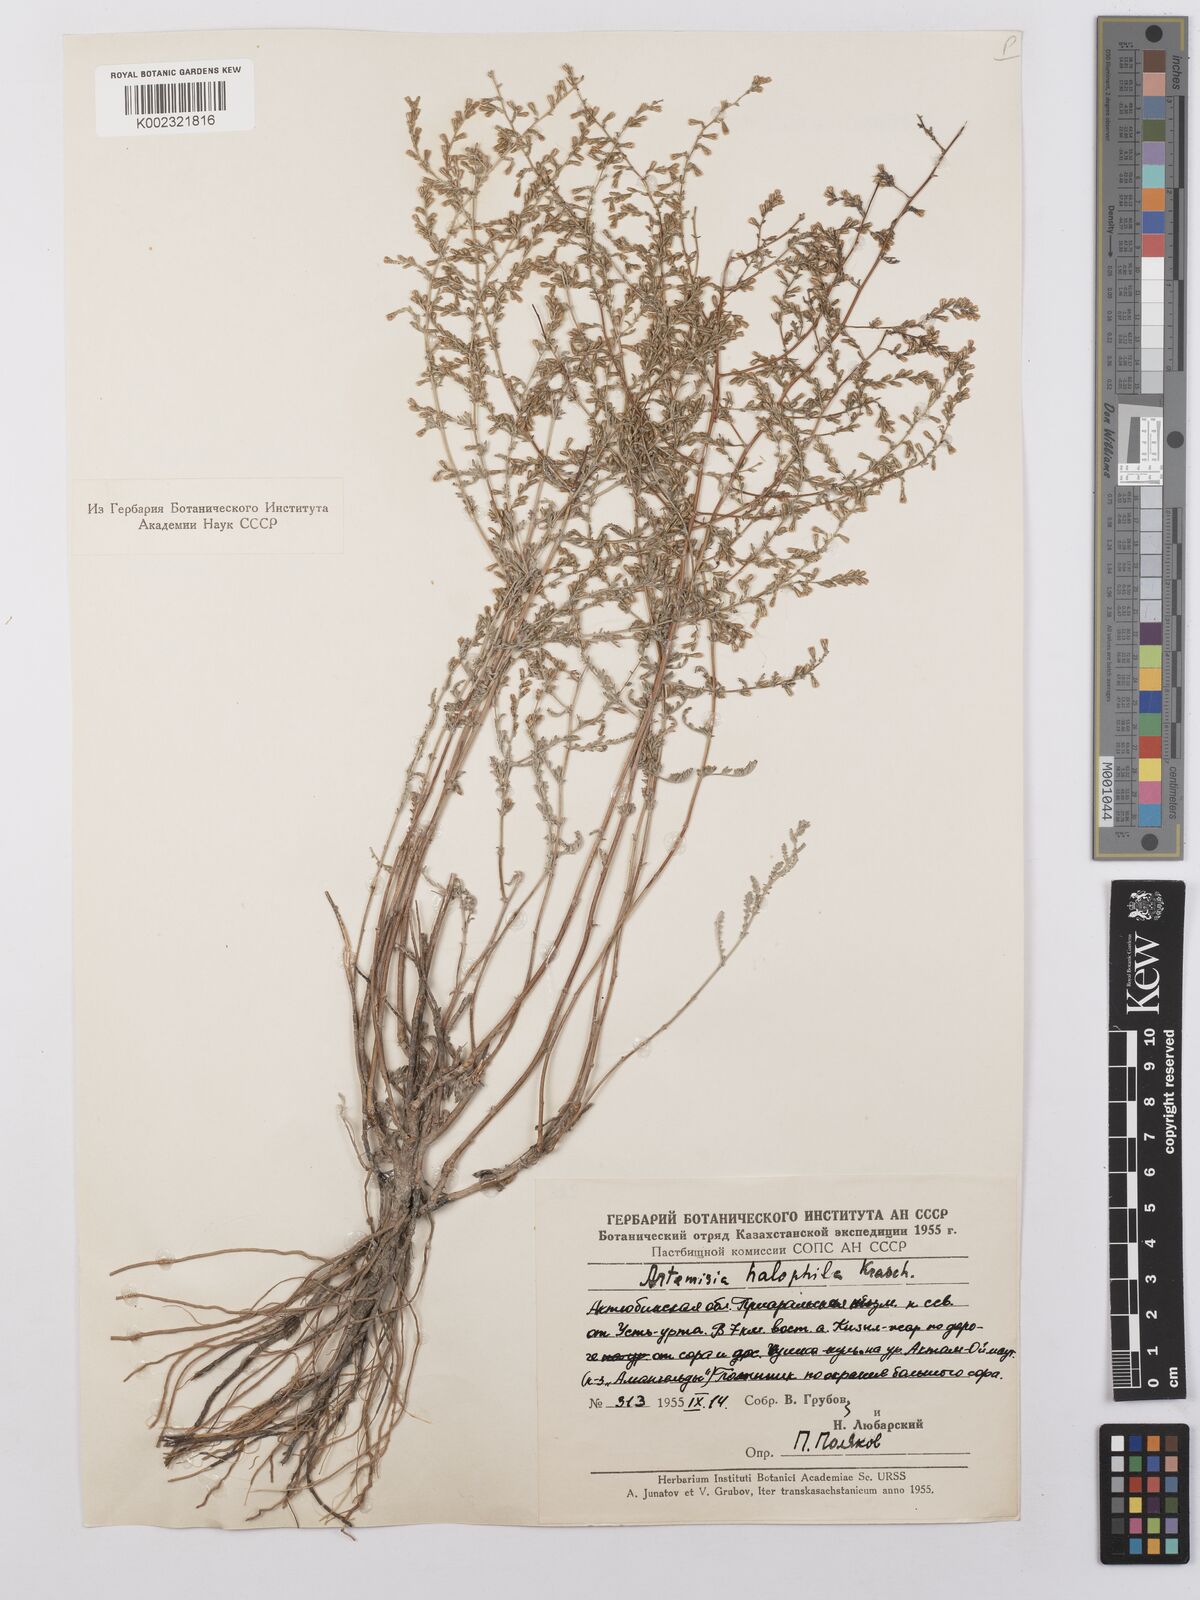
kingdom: Plantae
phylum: Tracheophyta
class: Magnoliopsida
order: Asterales
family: Asteraceae
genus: Artemisia
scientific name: Artemisia halophila
